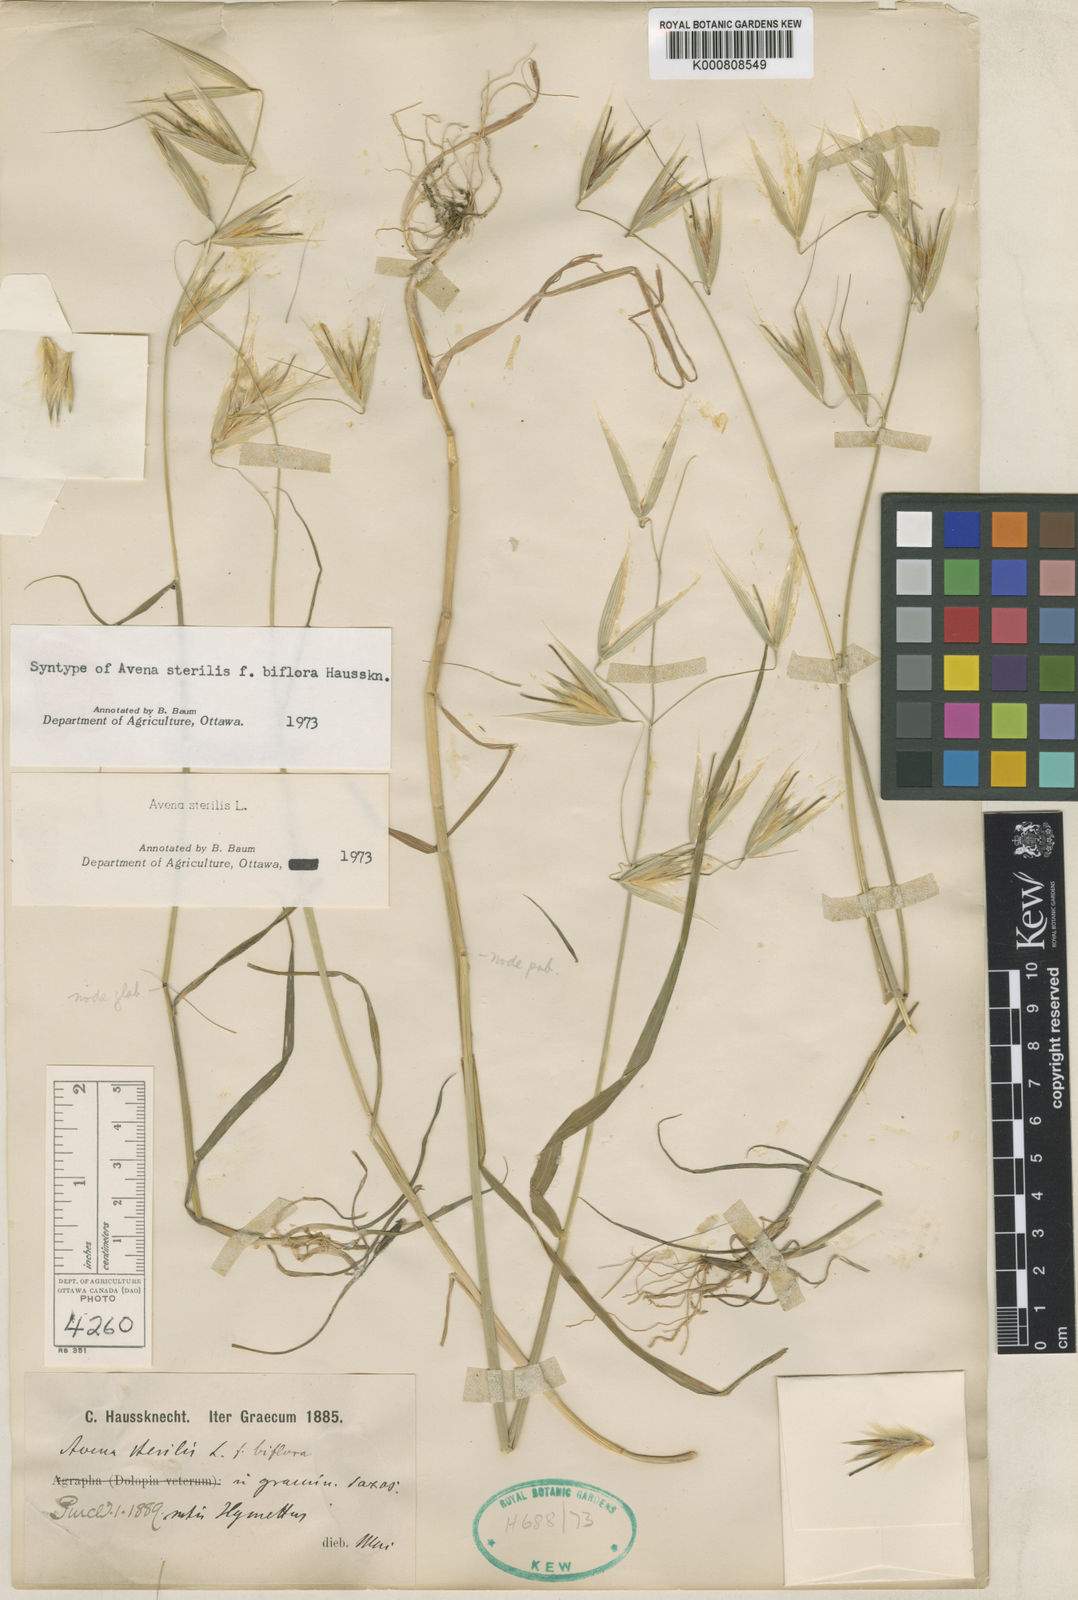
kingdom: Plantae
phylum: Tracheophyta
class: Liliopsida
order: Poales
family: Poaceae
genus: Avena
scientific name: Avena sterilis
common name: Animated oat
